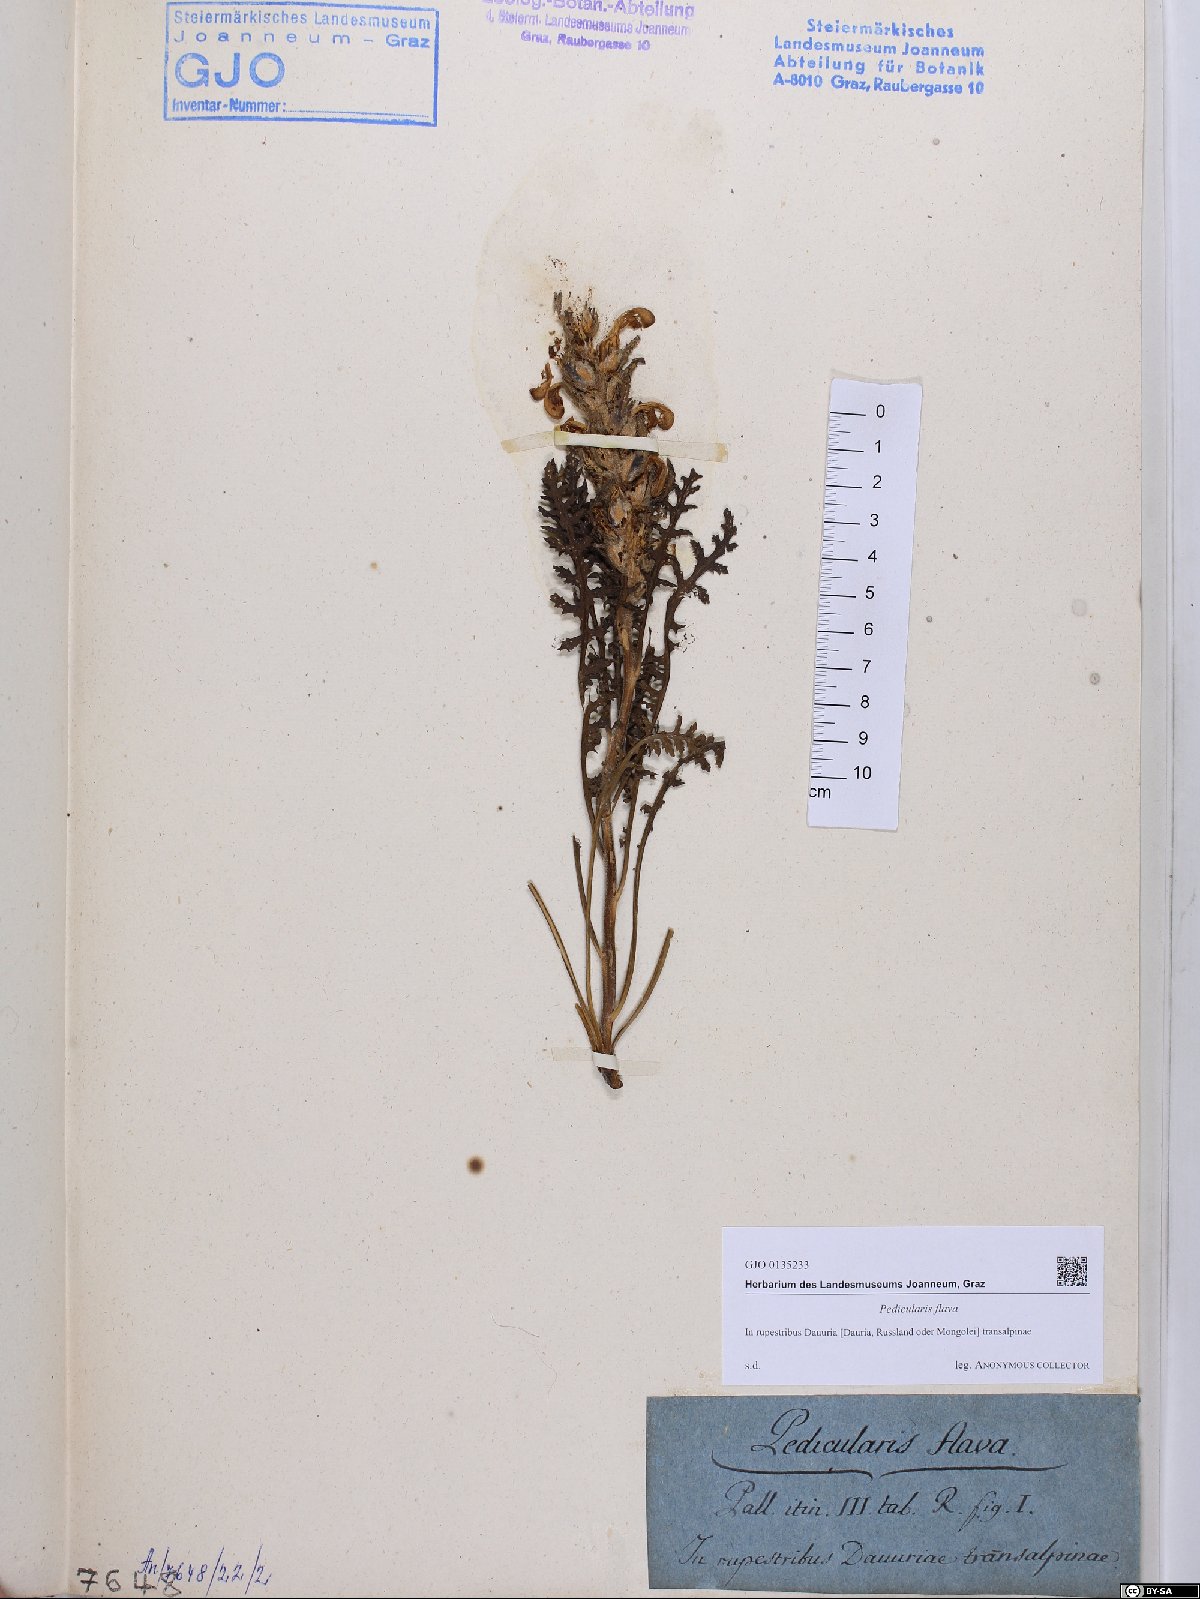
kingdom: Plantae
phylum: Tracheophyta
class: Magnoliopsida
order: Lamiales
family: Orobanchaceae
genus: Pedicularis
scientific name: Pedicularis flava
